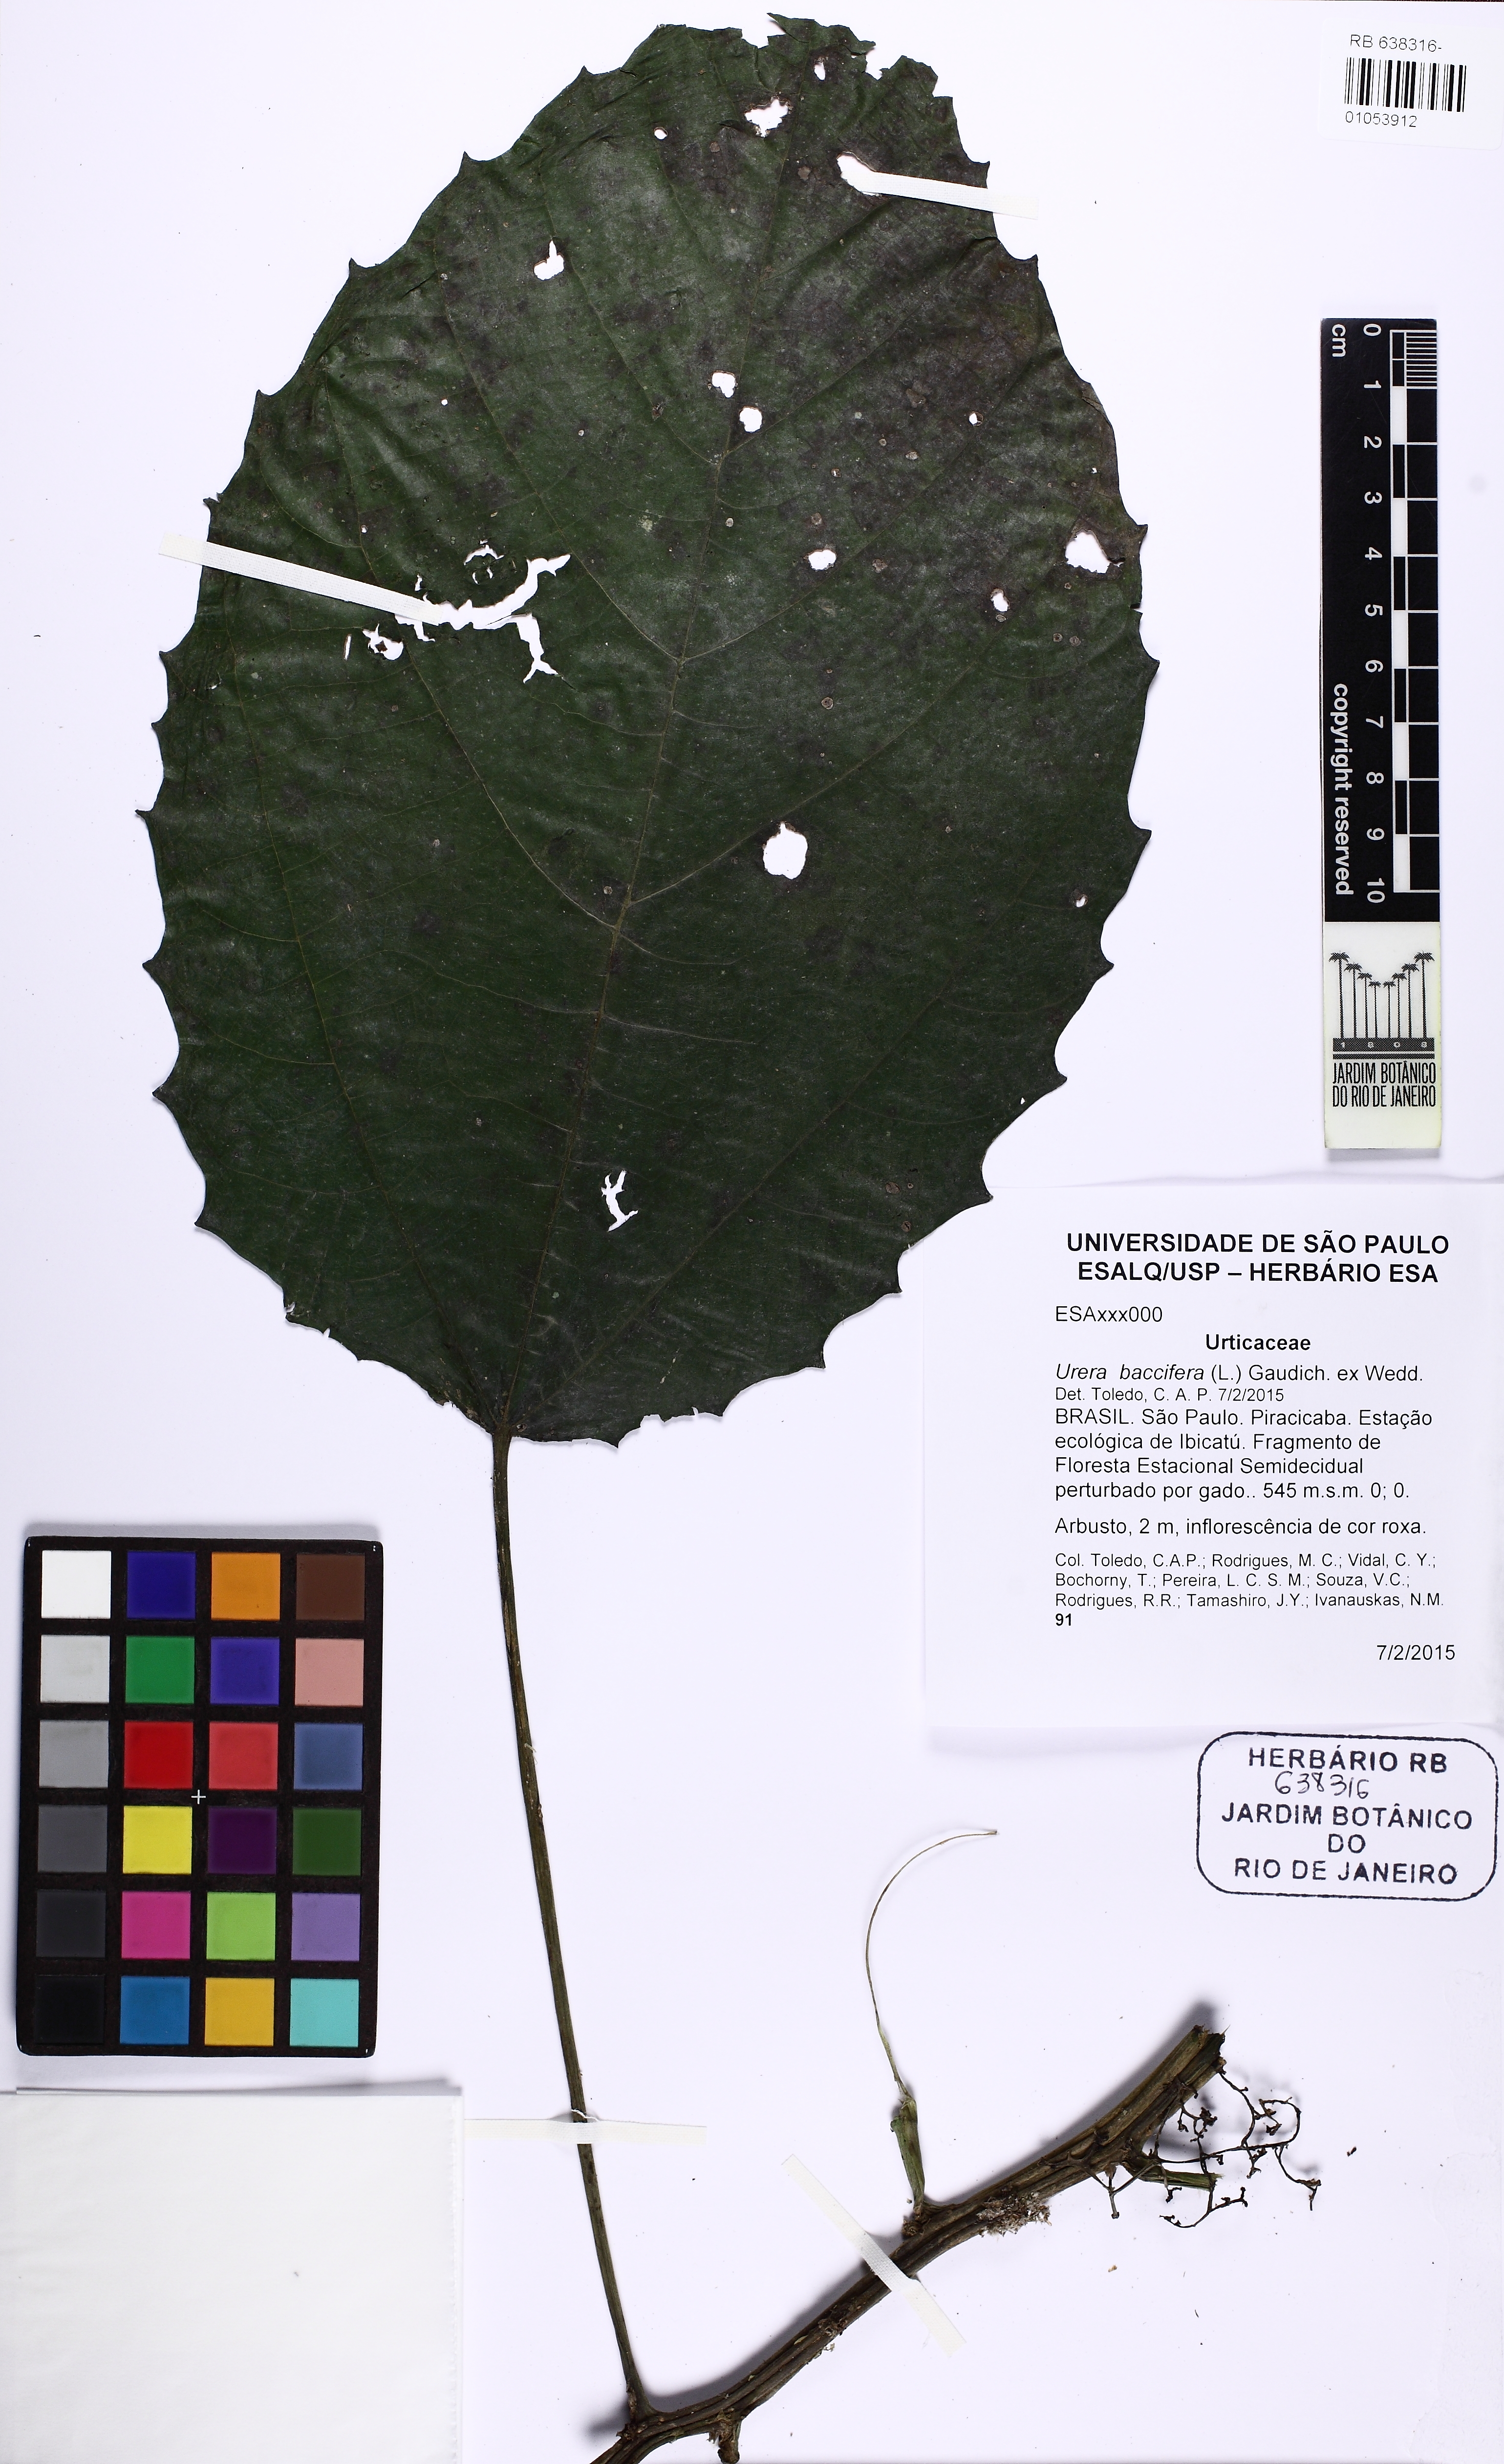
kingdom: Plantae
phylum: Tracheophyta
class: Magnoliopsida
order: Rosales
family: Urticaceae
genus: Urera
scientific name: Urera baccifera
